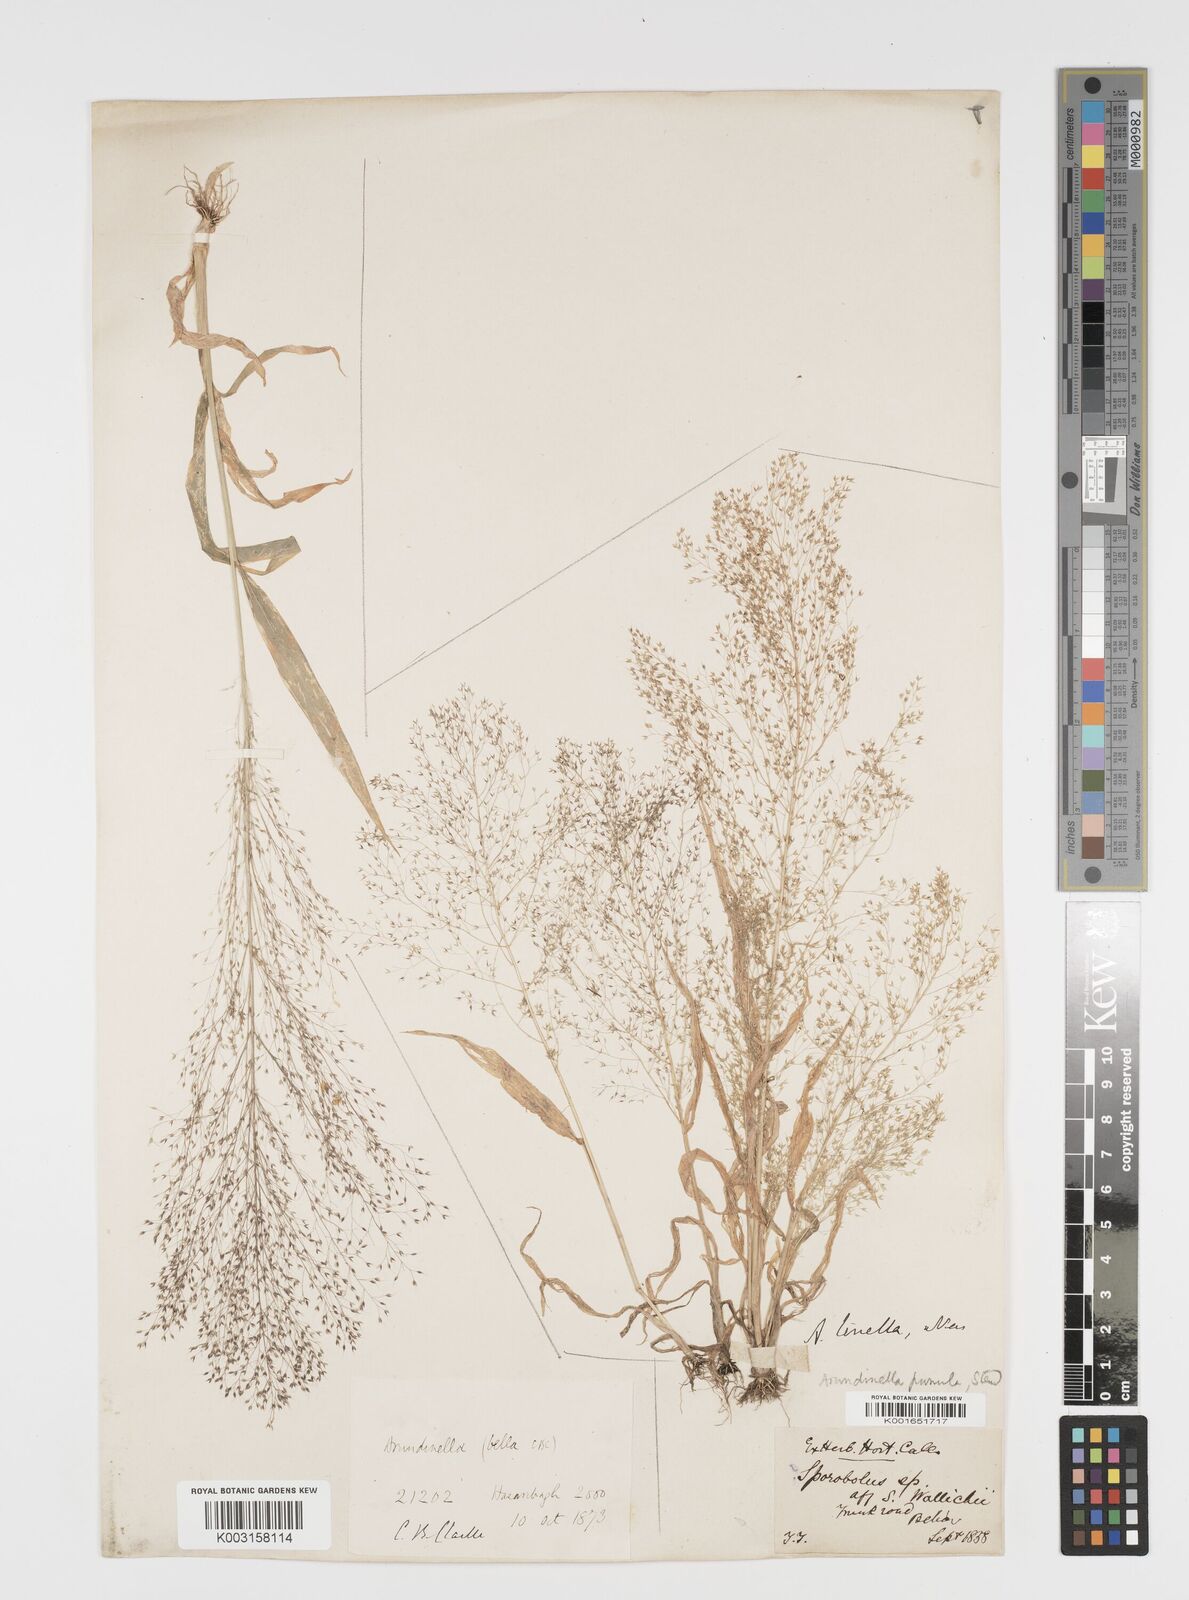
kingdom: Plantae
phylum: Tracheophyta
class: Liliopsida
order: Poales
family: Poaceae
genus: Arundinella
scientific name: Arundinella pumila
